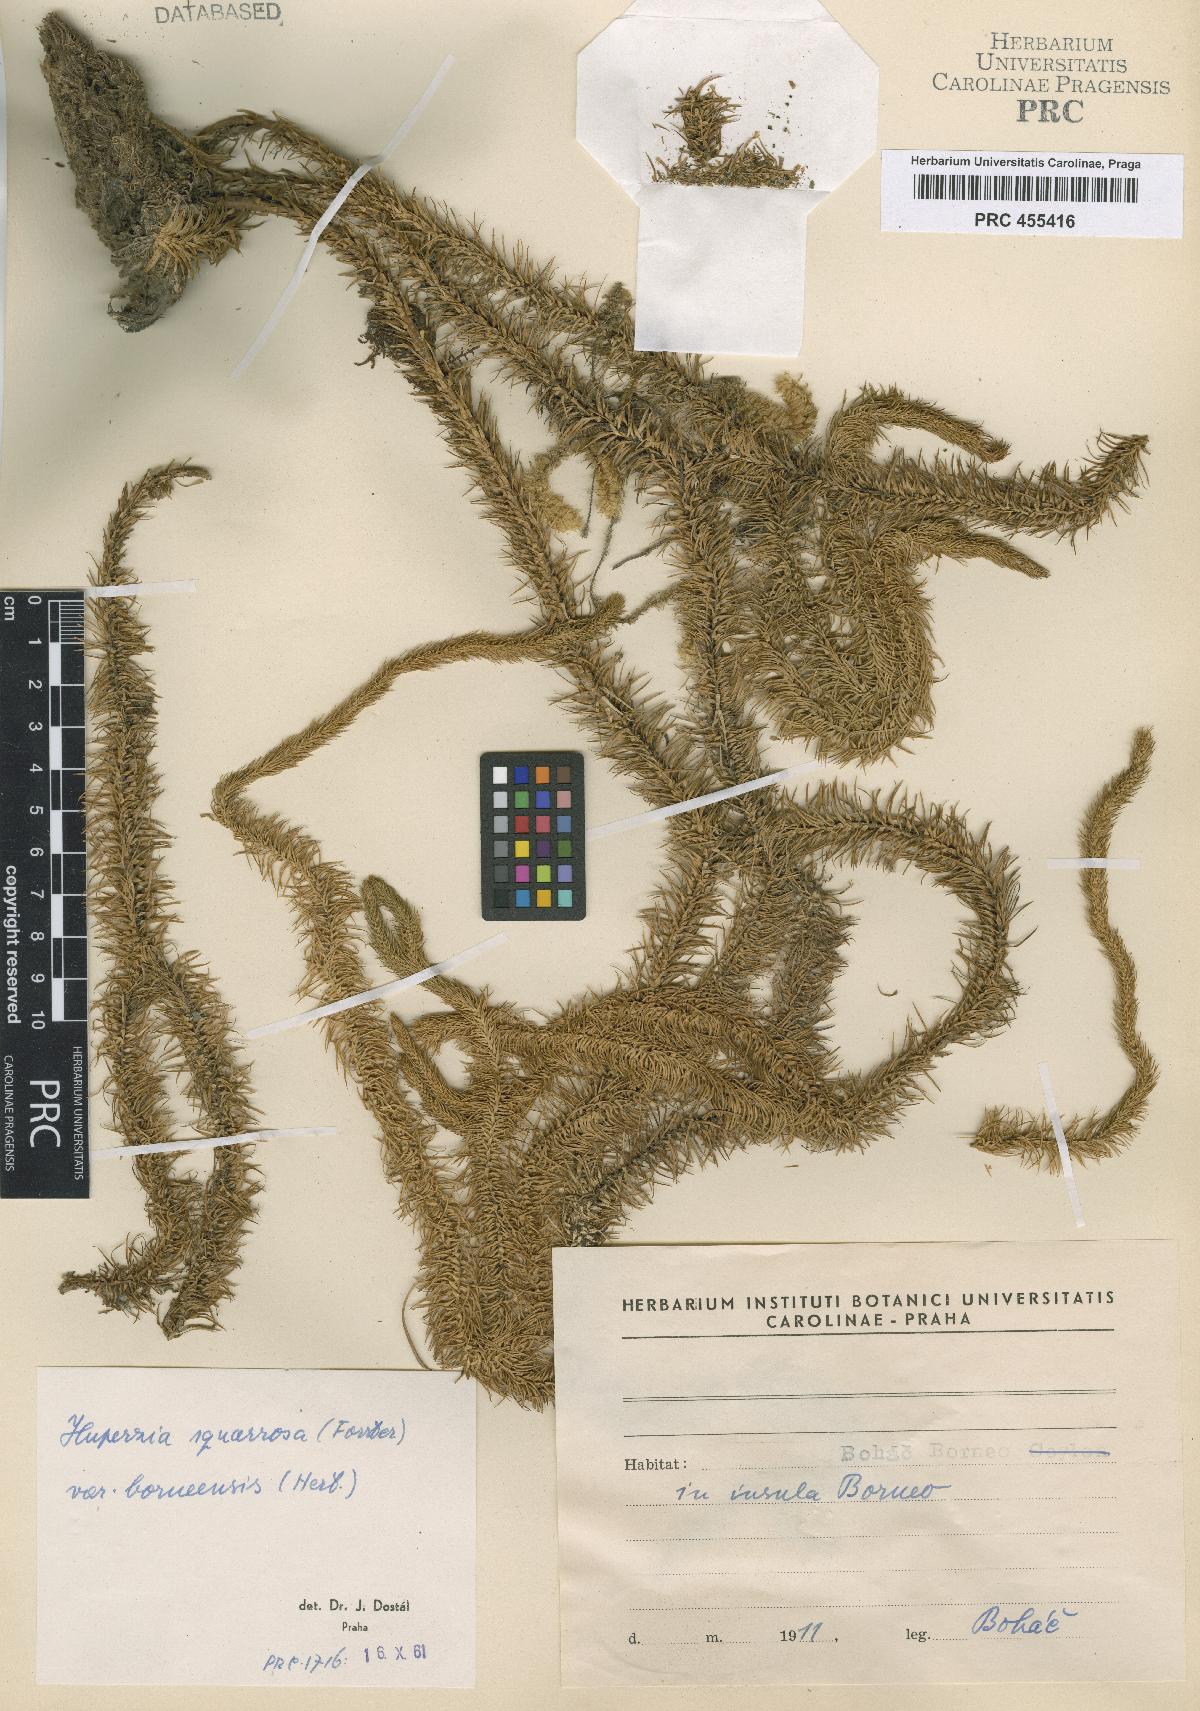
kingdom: Plantae
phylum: Tracheophyta
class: Lycopodiopsida
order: Lycopodiales
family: Lycopodiaceae
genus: Phlegmariurus
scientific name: Phlegmariurus squarrosus
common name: Rock tassel-fern
